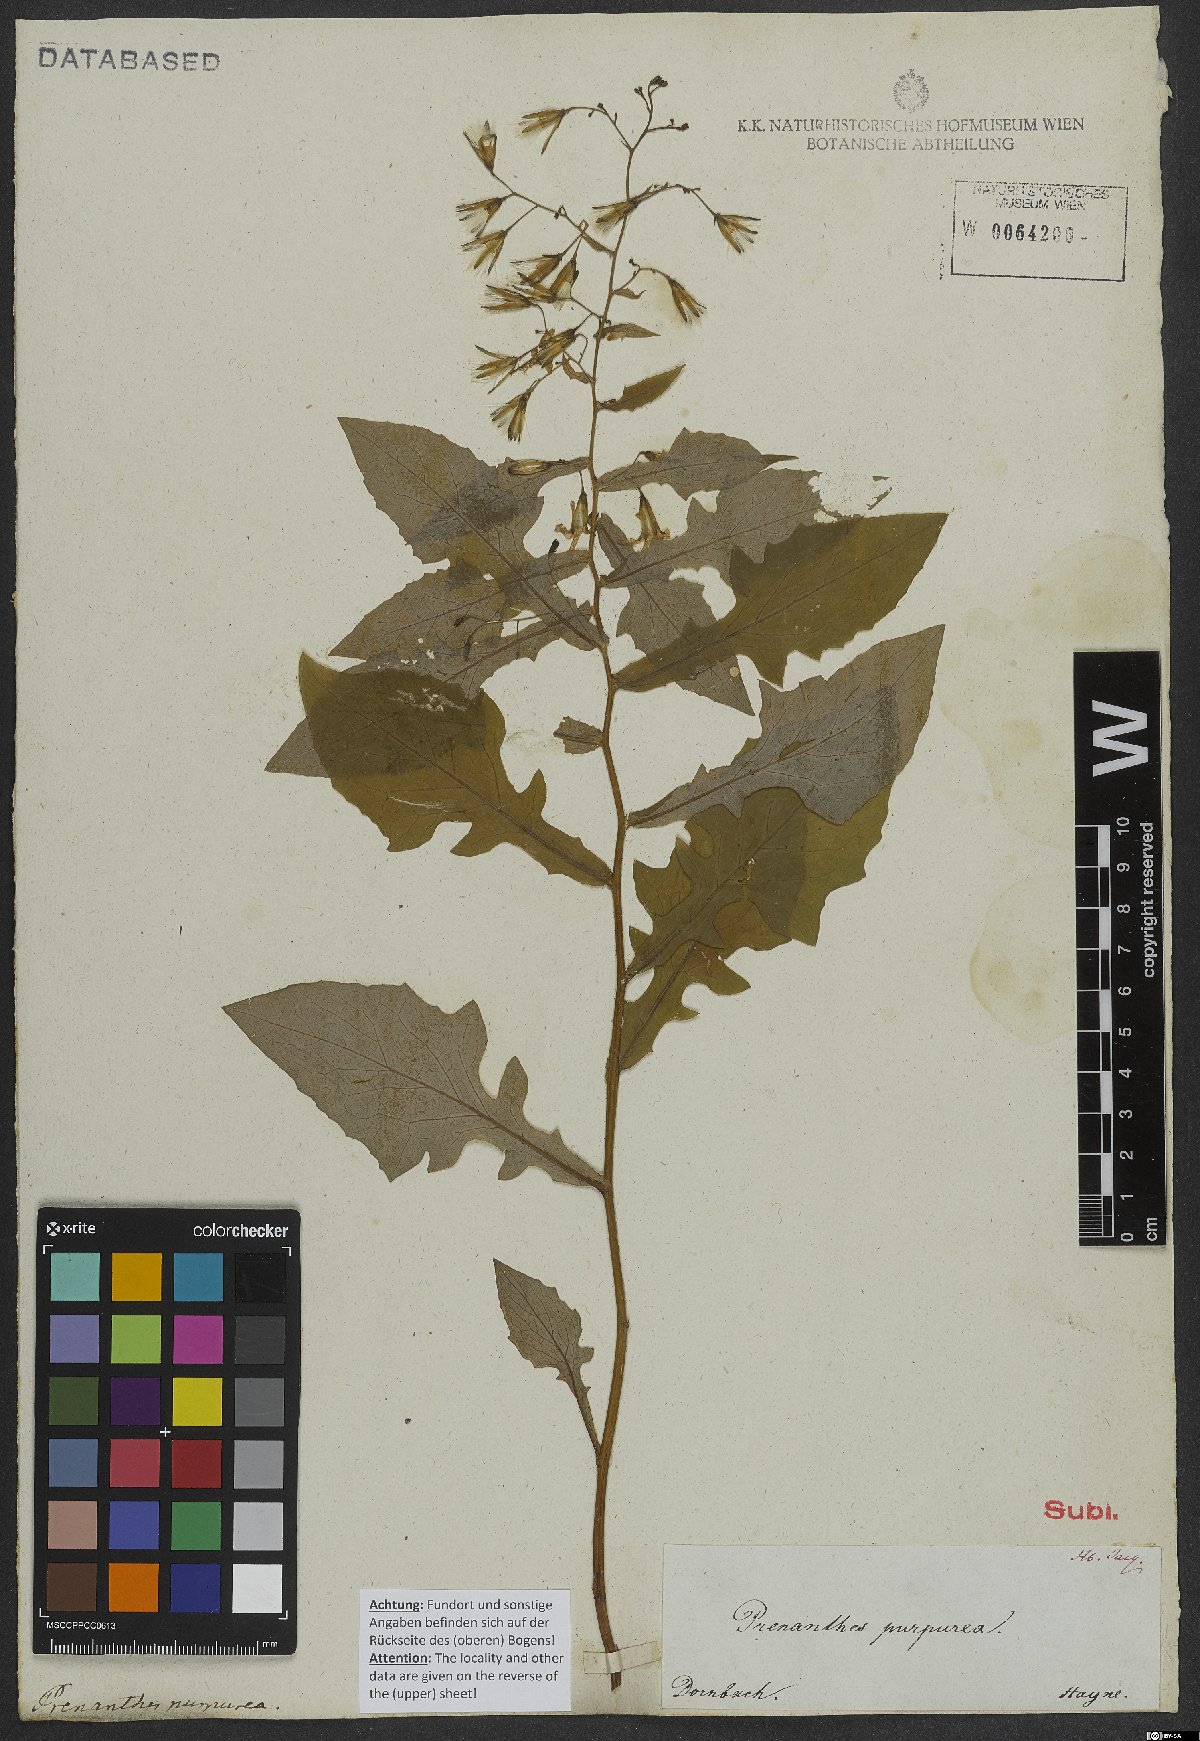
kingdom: Plantae
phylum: Tracheophyta
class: Magnoliopsida
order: Asterales
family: Asteraceae
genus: Prenanthes
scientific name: Prenanthes purpurea
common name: Purple lettuce
